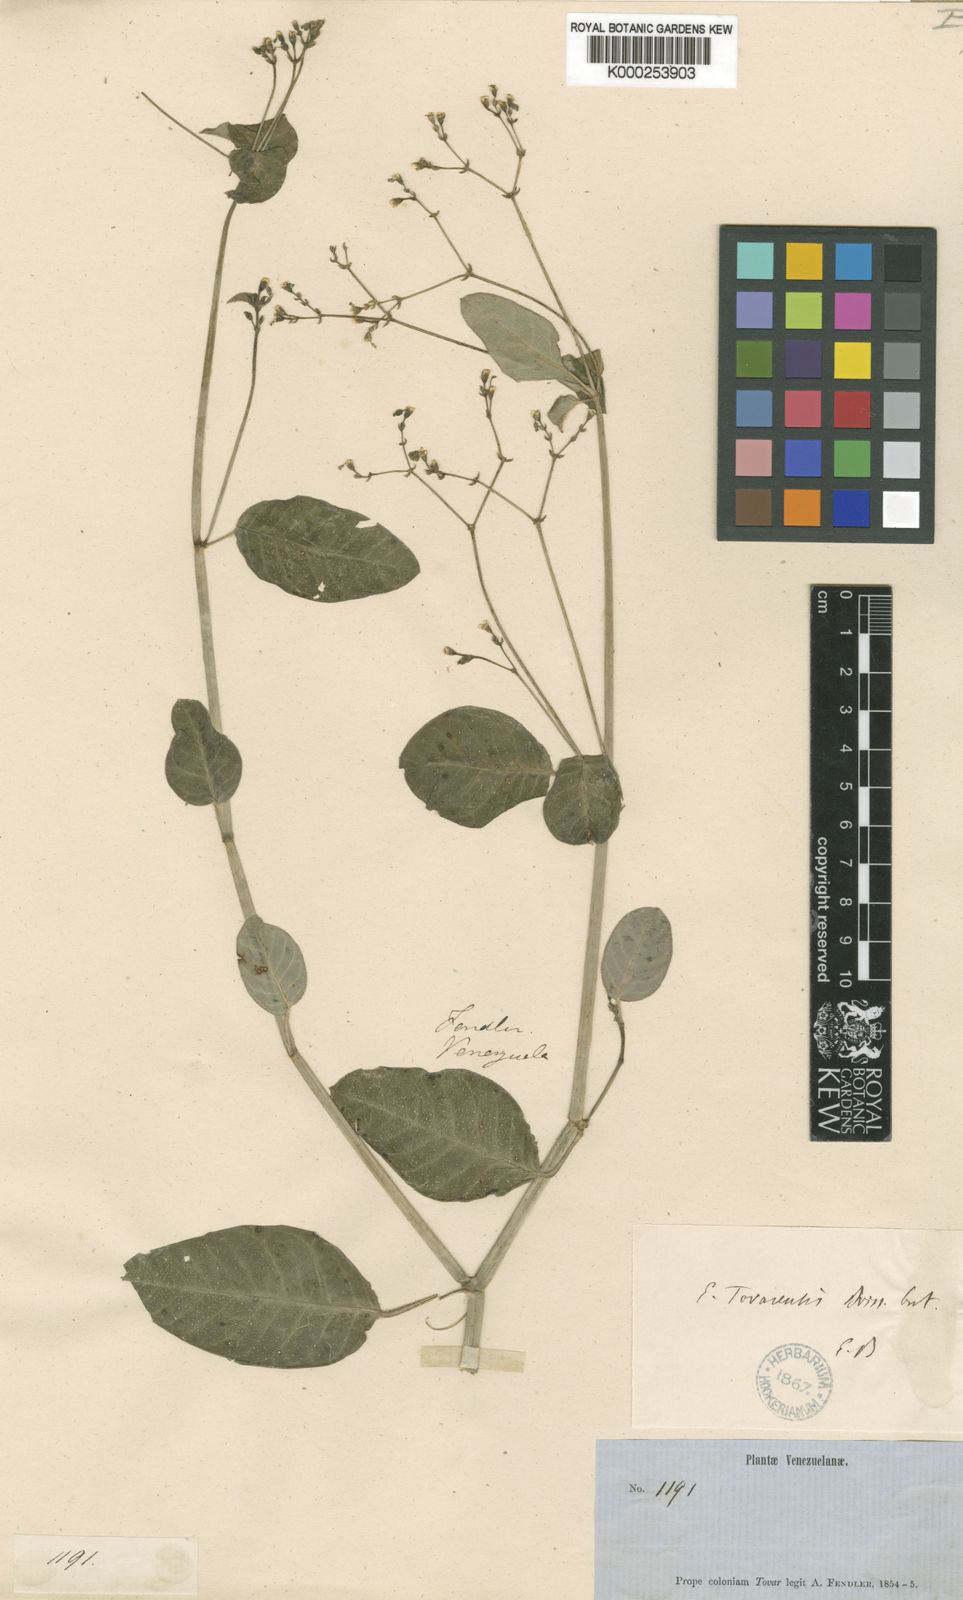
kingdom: Plantae
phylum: Tracheophyta
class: Magnoliopsida
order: Malpighiales
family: Euphorbiaceae
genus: Euphorbia
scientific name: Euphorbia insulana
